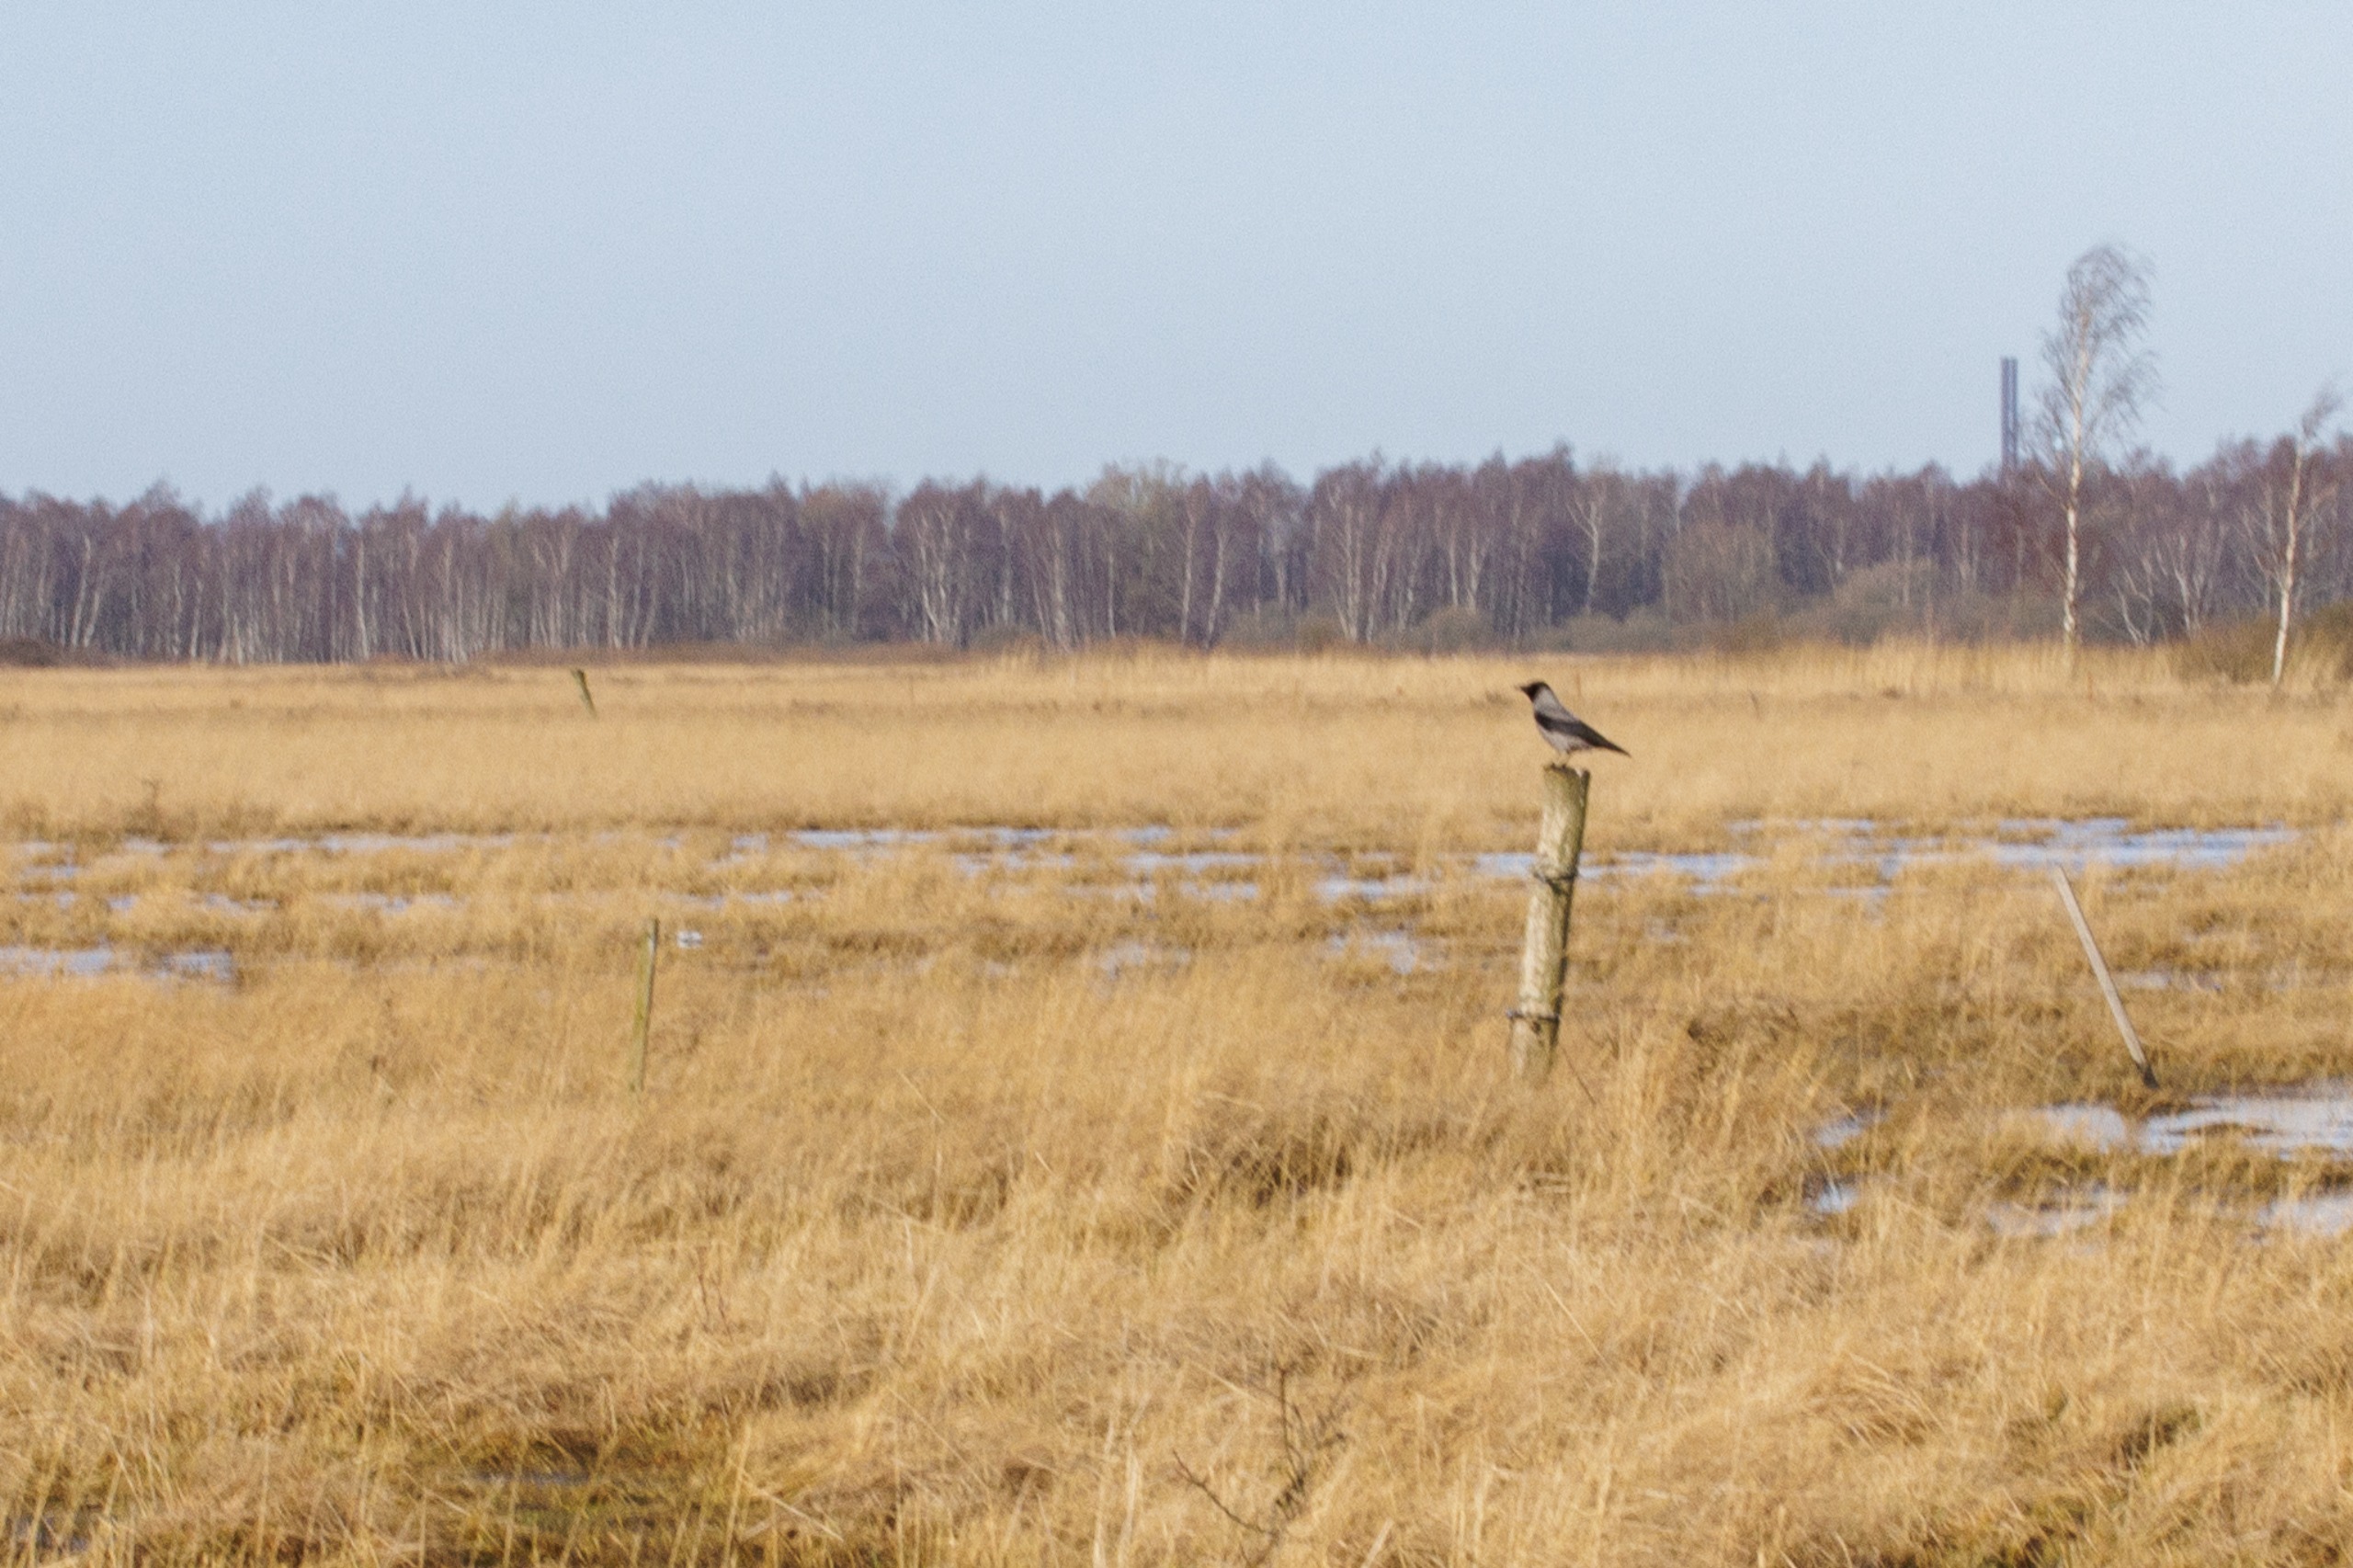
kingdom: Animalia
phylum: Chordata
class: Aves
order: Passeriformes
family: Corvidae
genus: Corvus
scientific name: Corvus cornix
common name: Gråkrage
